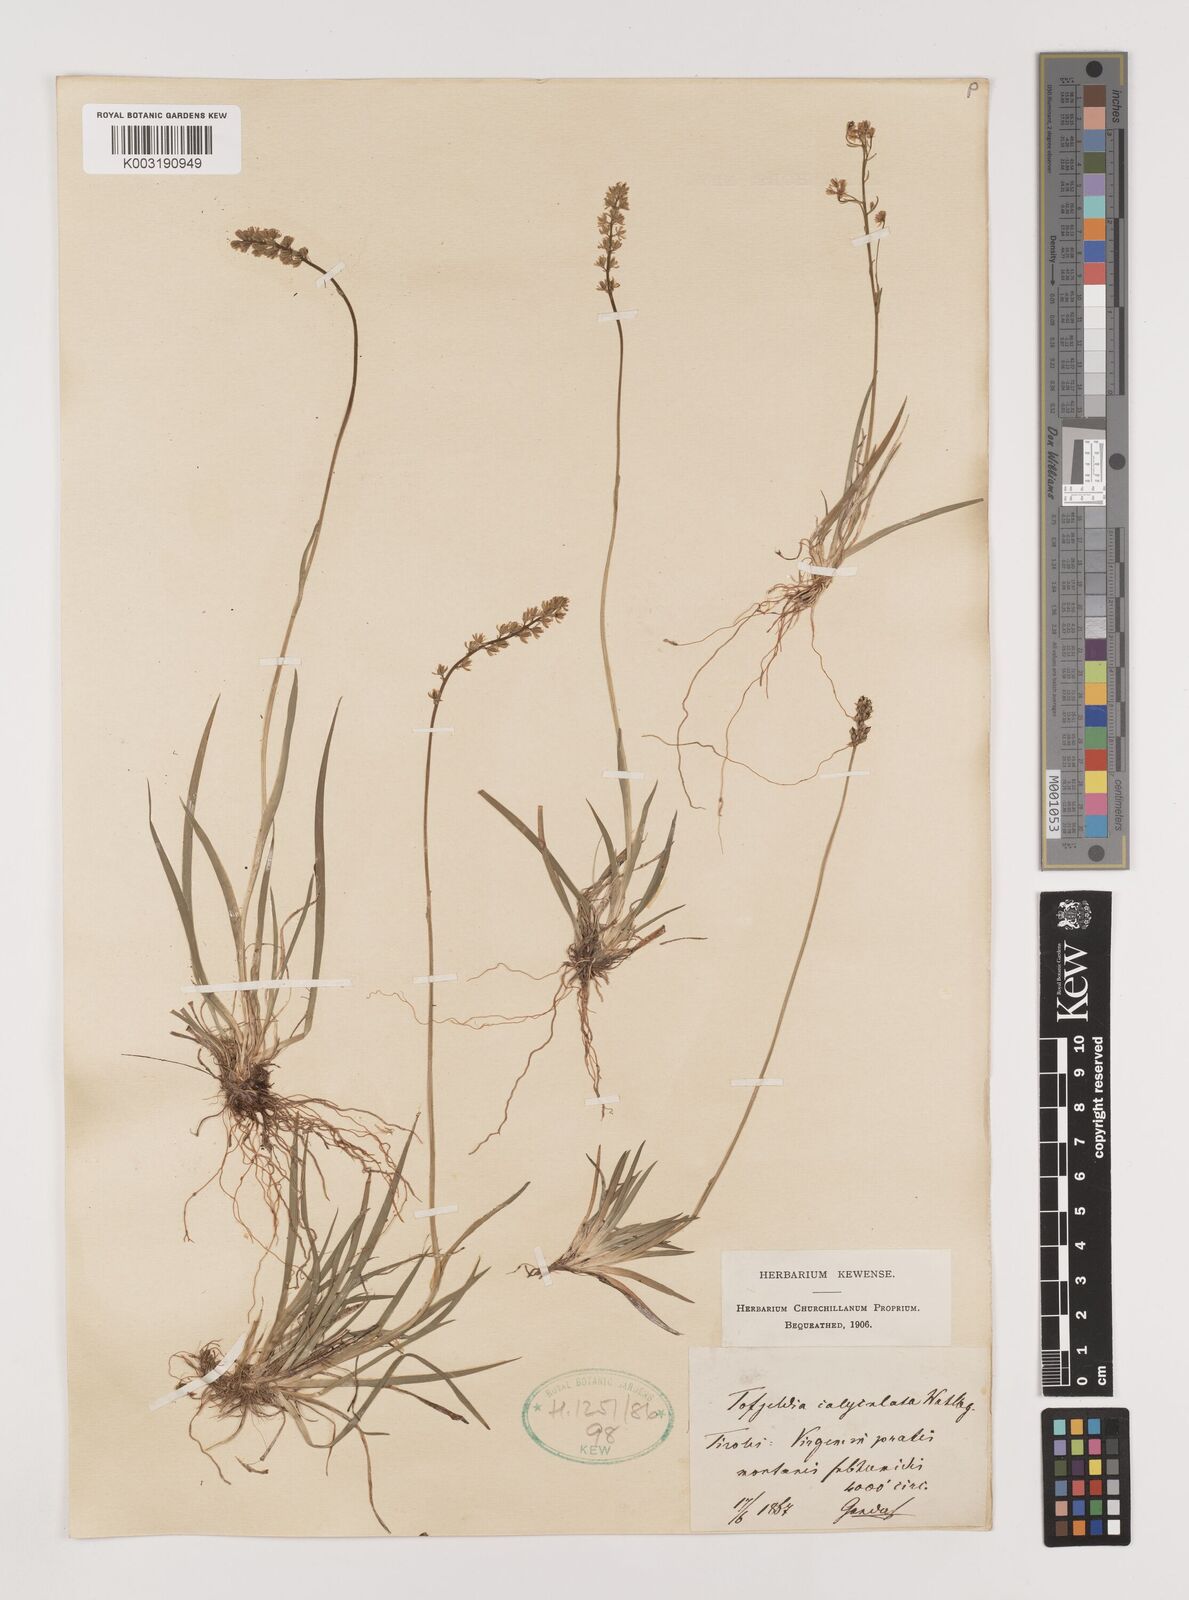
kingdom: Plantae
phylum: Tracheophyta
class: Liliopsida
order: Alismatales
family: Tofieldiaceae
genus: Tofieldia
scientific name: Tofieldia calyculata
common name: German-asphodel
